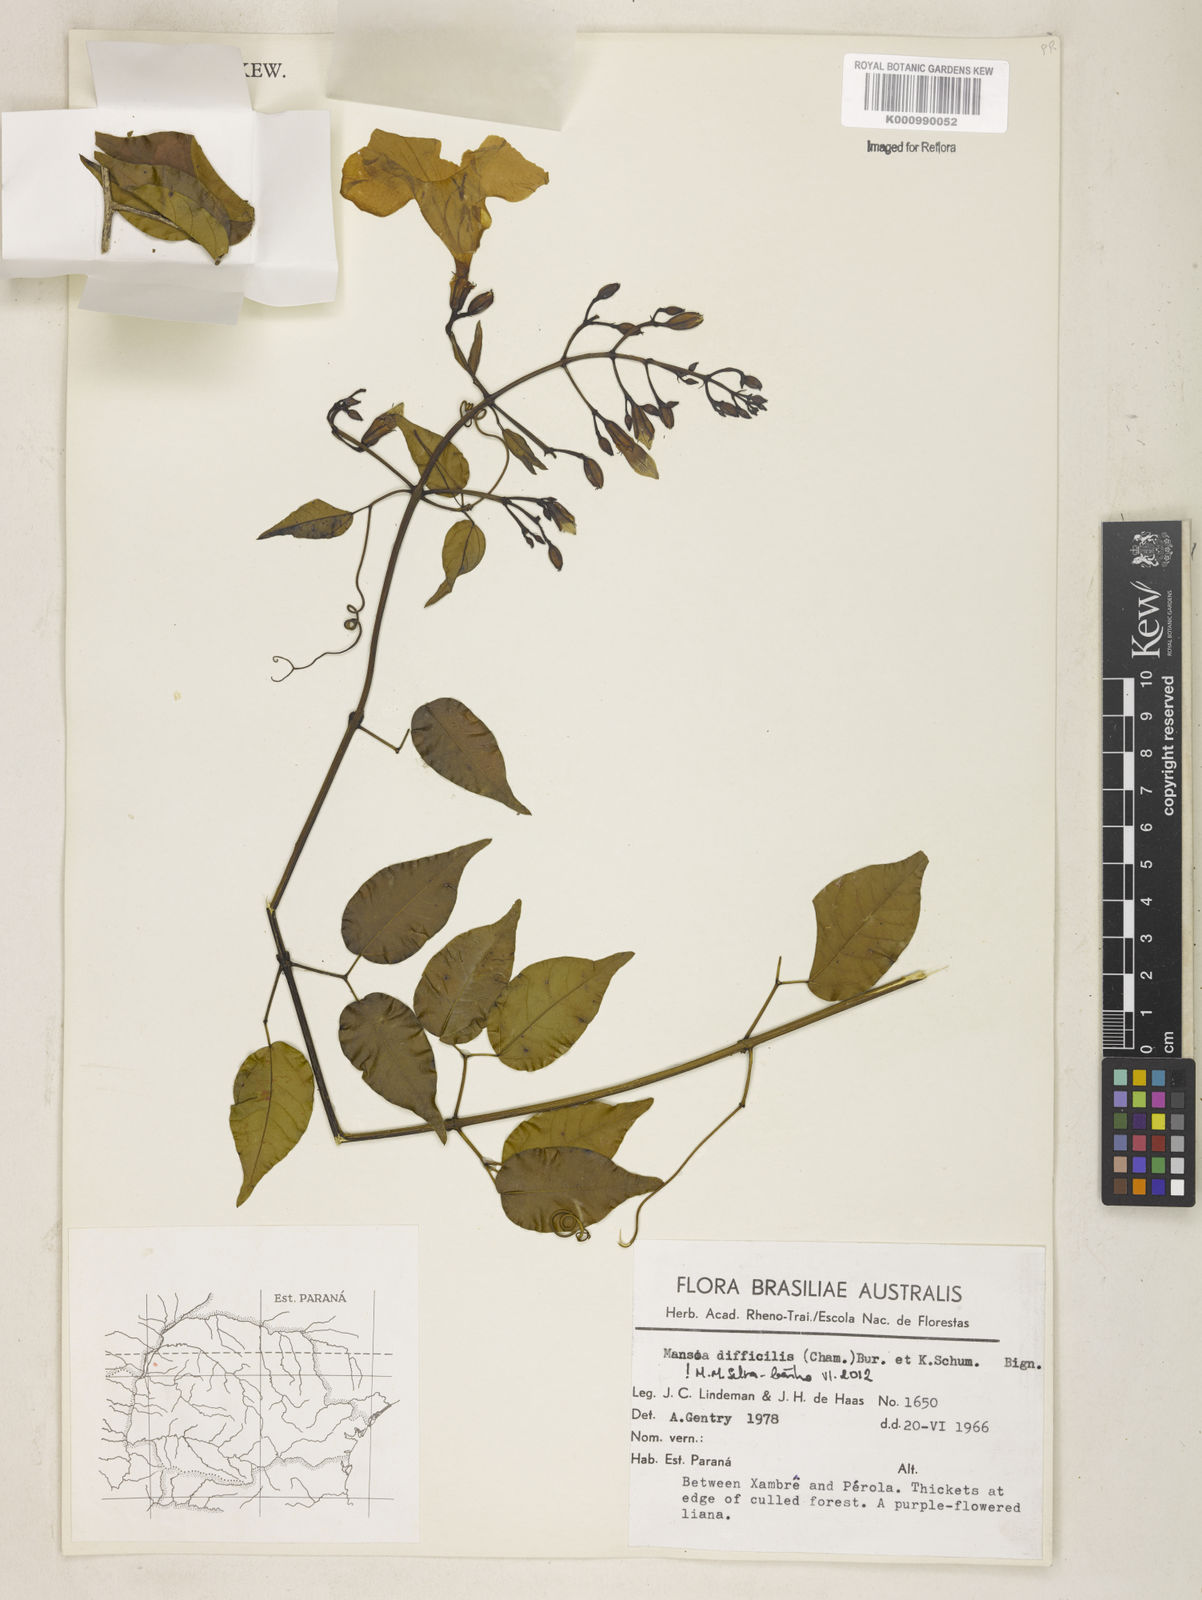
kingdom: Plantae
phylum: Tracheophyta
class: Magnoliopsida
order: Lamiales
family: Bignoniaceae
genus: Mansoa
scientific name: Mansoa difficilis
